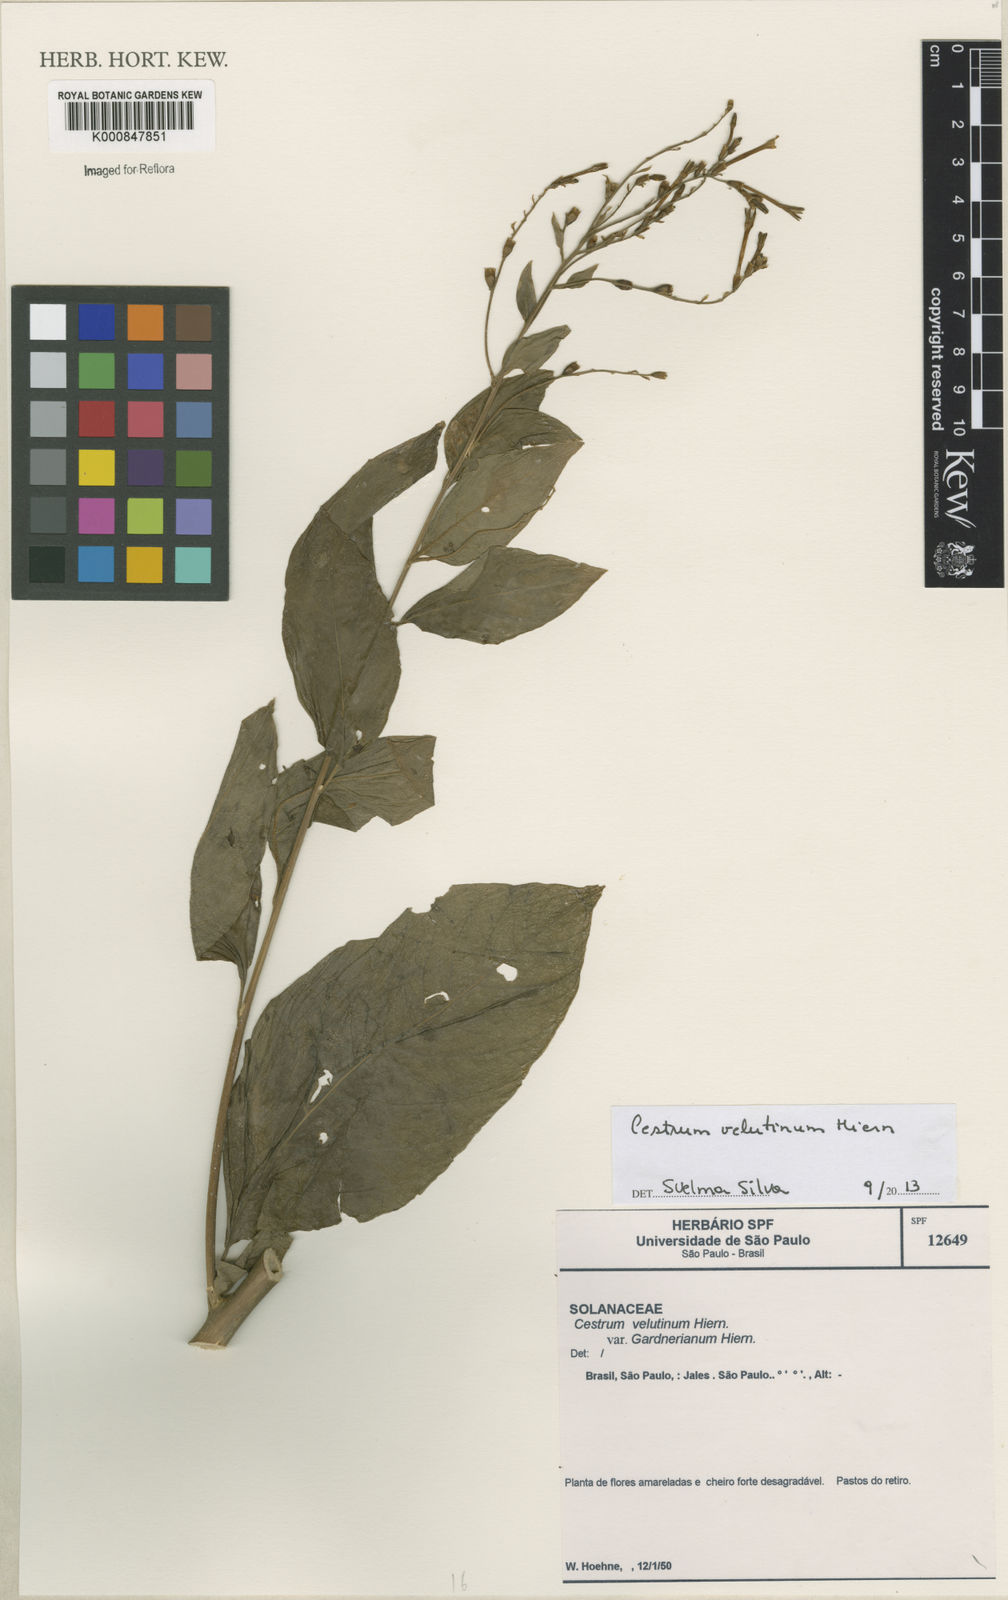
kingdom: Plantae
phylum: Tracheophyta
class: Magnoliopsida
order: Solanales
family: Solanaceae
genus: Cestrum
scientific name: Cestrum velutinum
